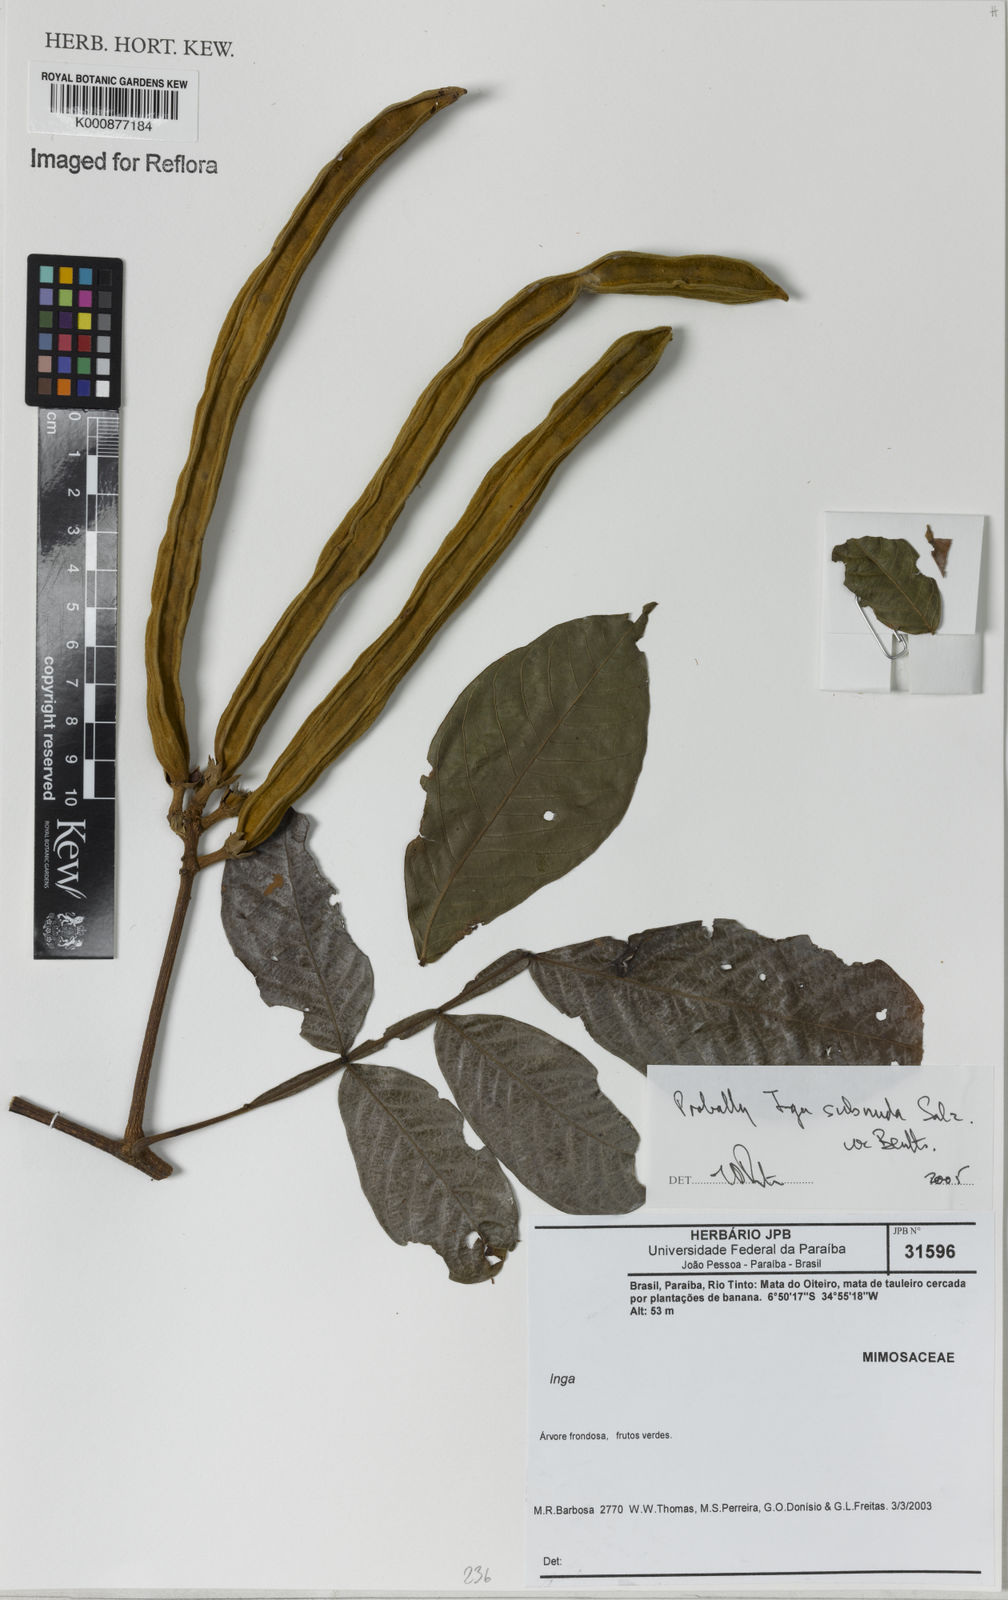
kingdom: Plantae
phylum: Tracheophyta
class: Magnoliopsida
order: Fabales
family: Fabaceae
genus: Inga
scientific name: Inga subnuda
